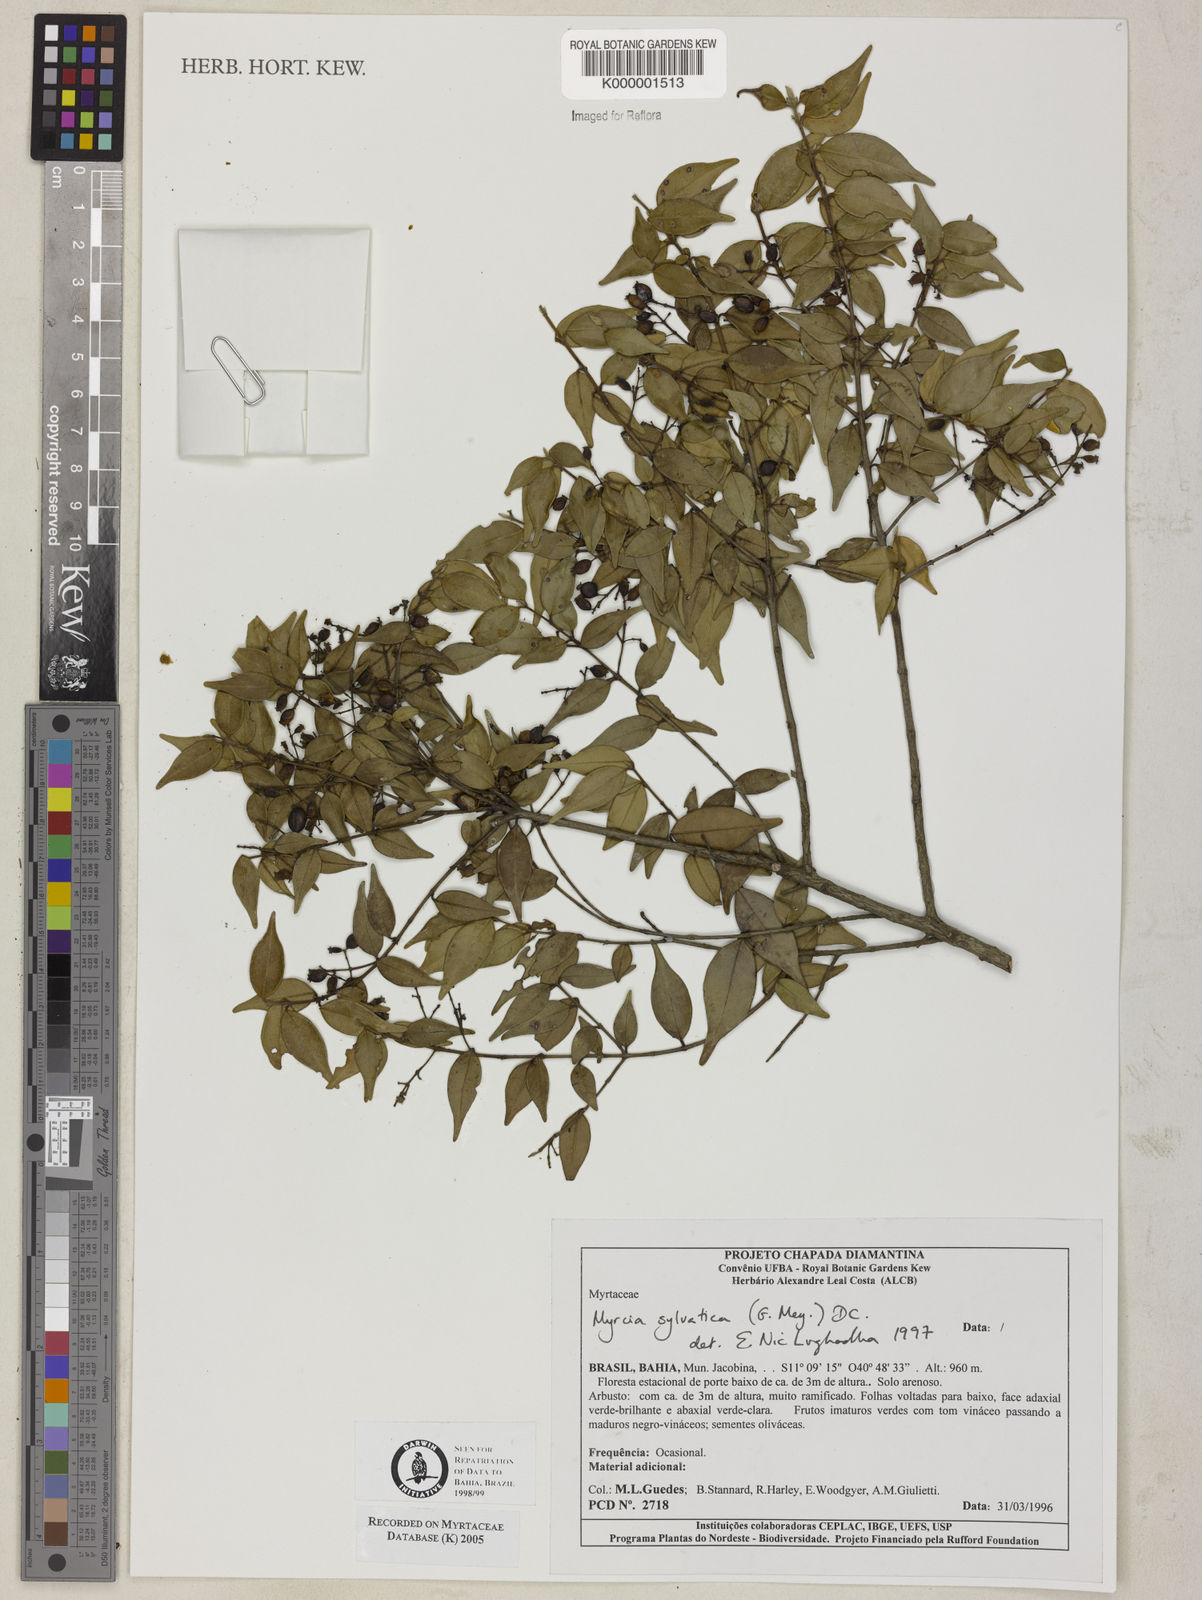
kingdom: Plantae
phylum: Tracheophyta
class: Magnoliopsida
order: Myrtales
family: Myrtaceae
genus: Myrcia
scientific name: Myrcia sylvatica
